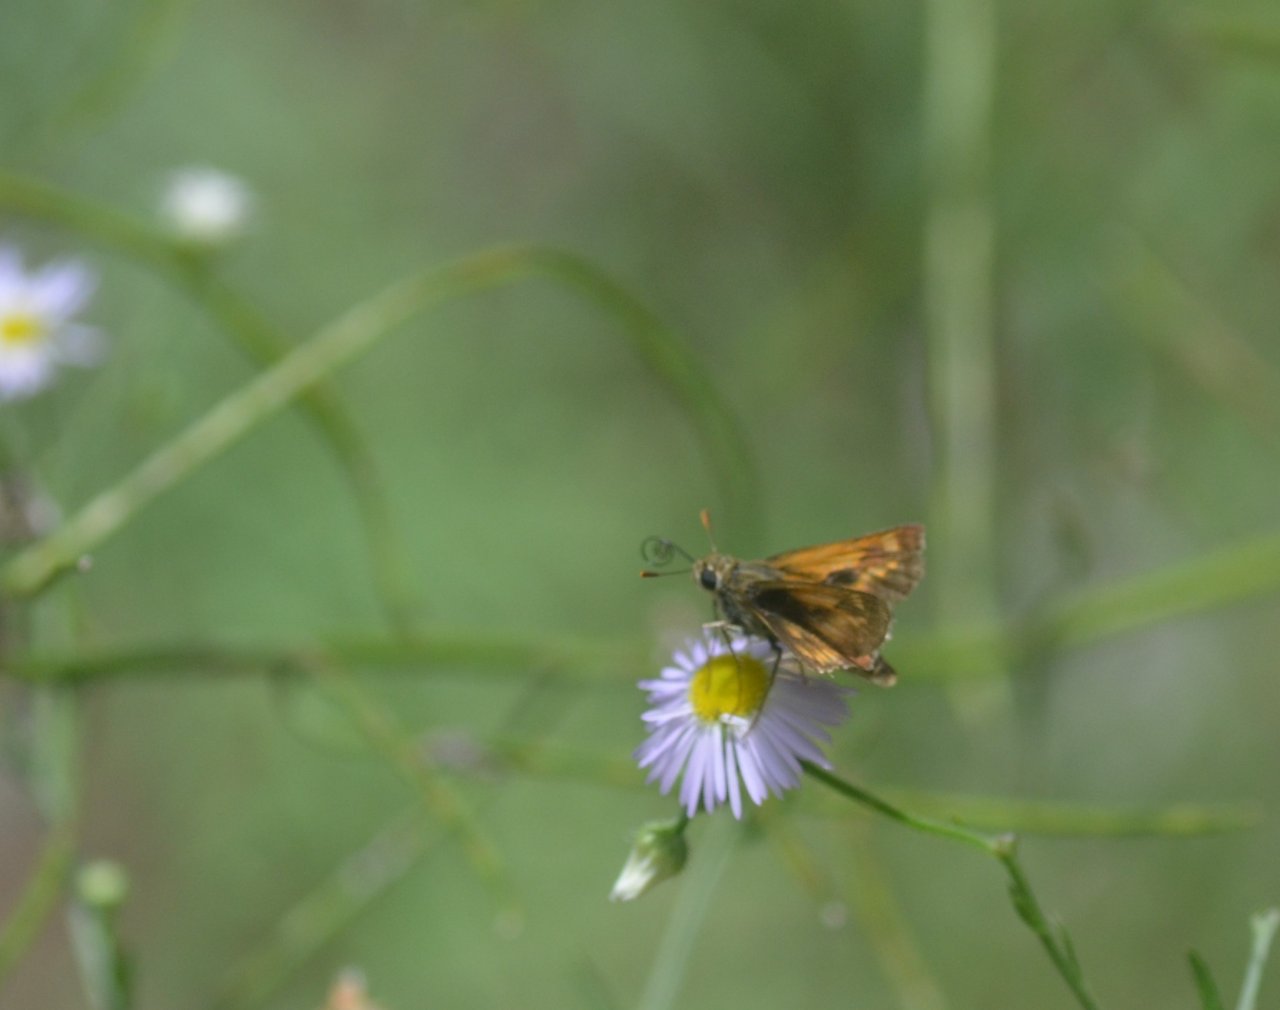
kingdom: Animalia
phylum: Arthropoda
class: Insecta
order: Lepidoptera
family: Hesperiidae
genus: Polites
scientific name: Polites
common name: Long Dash Skipper
